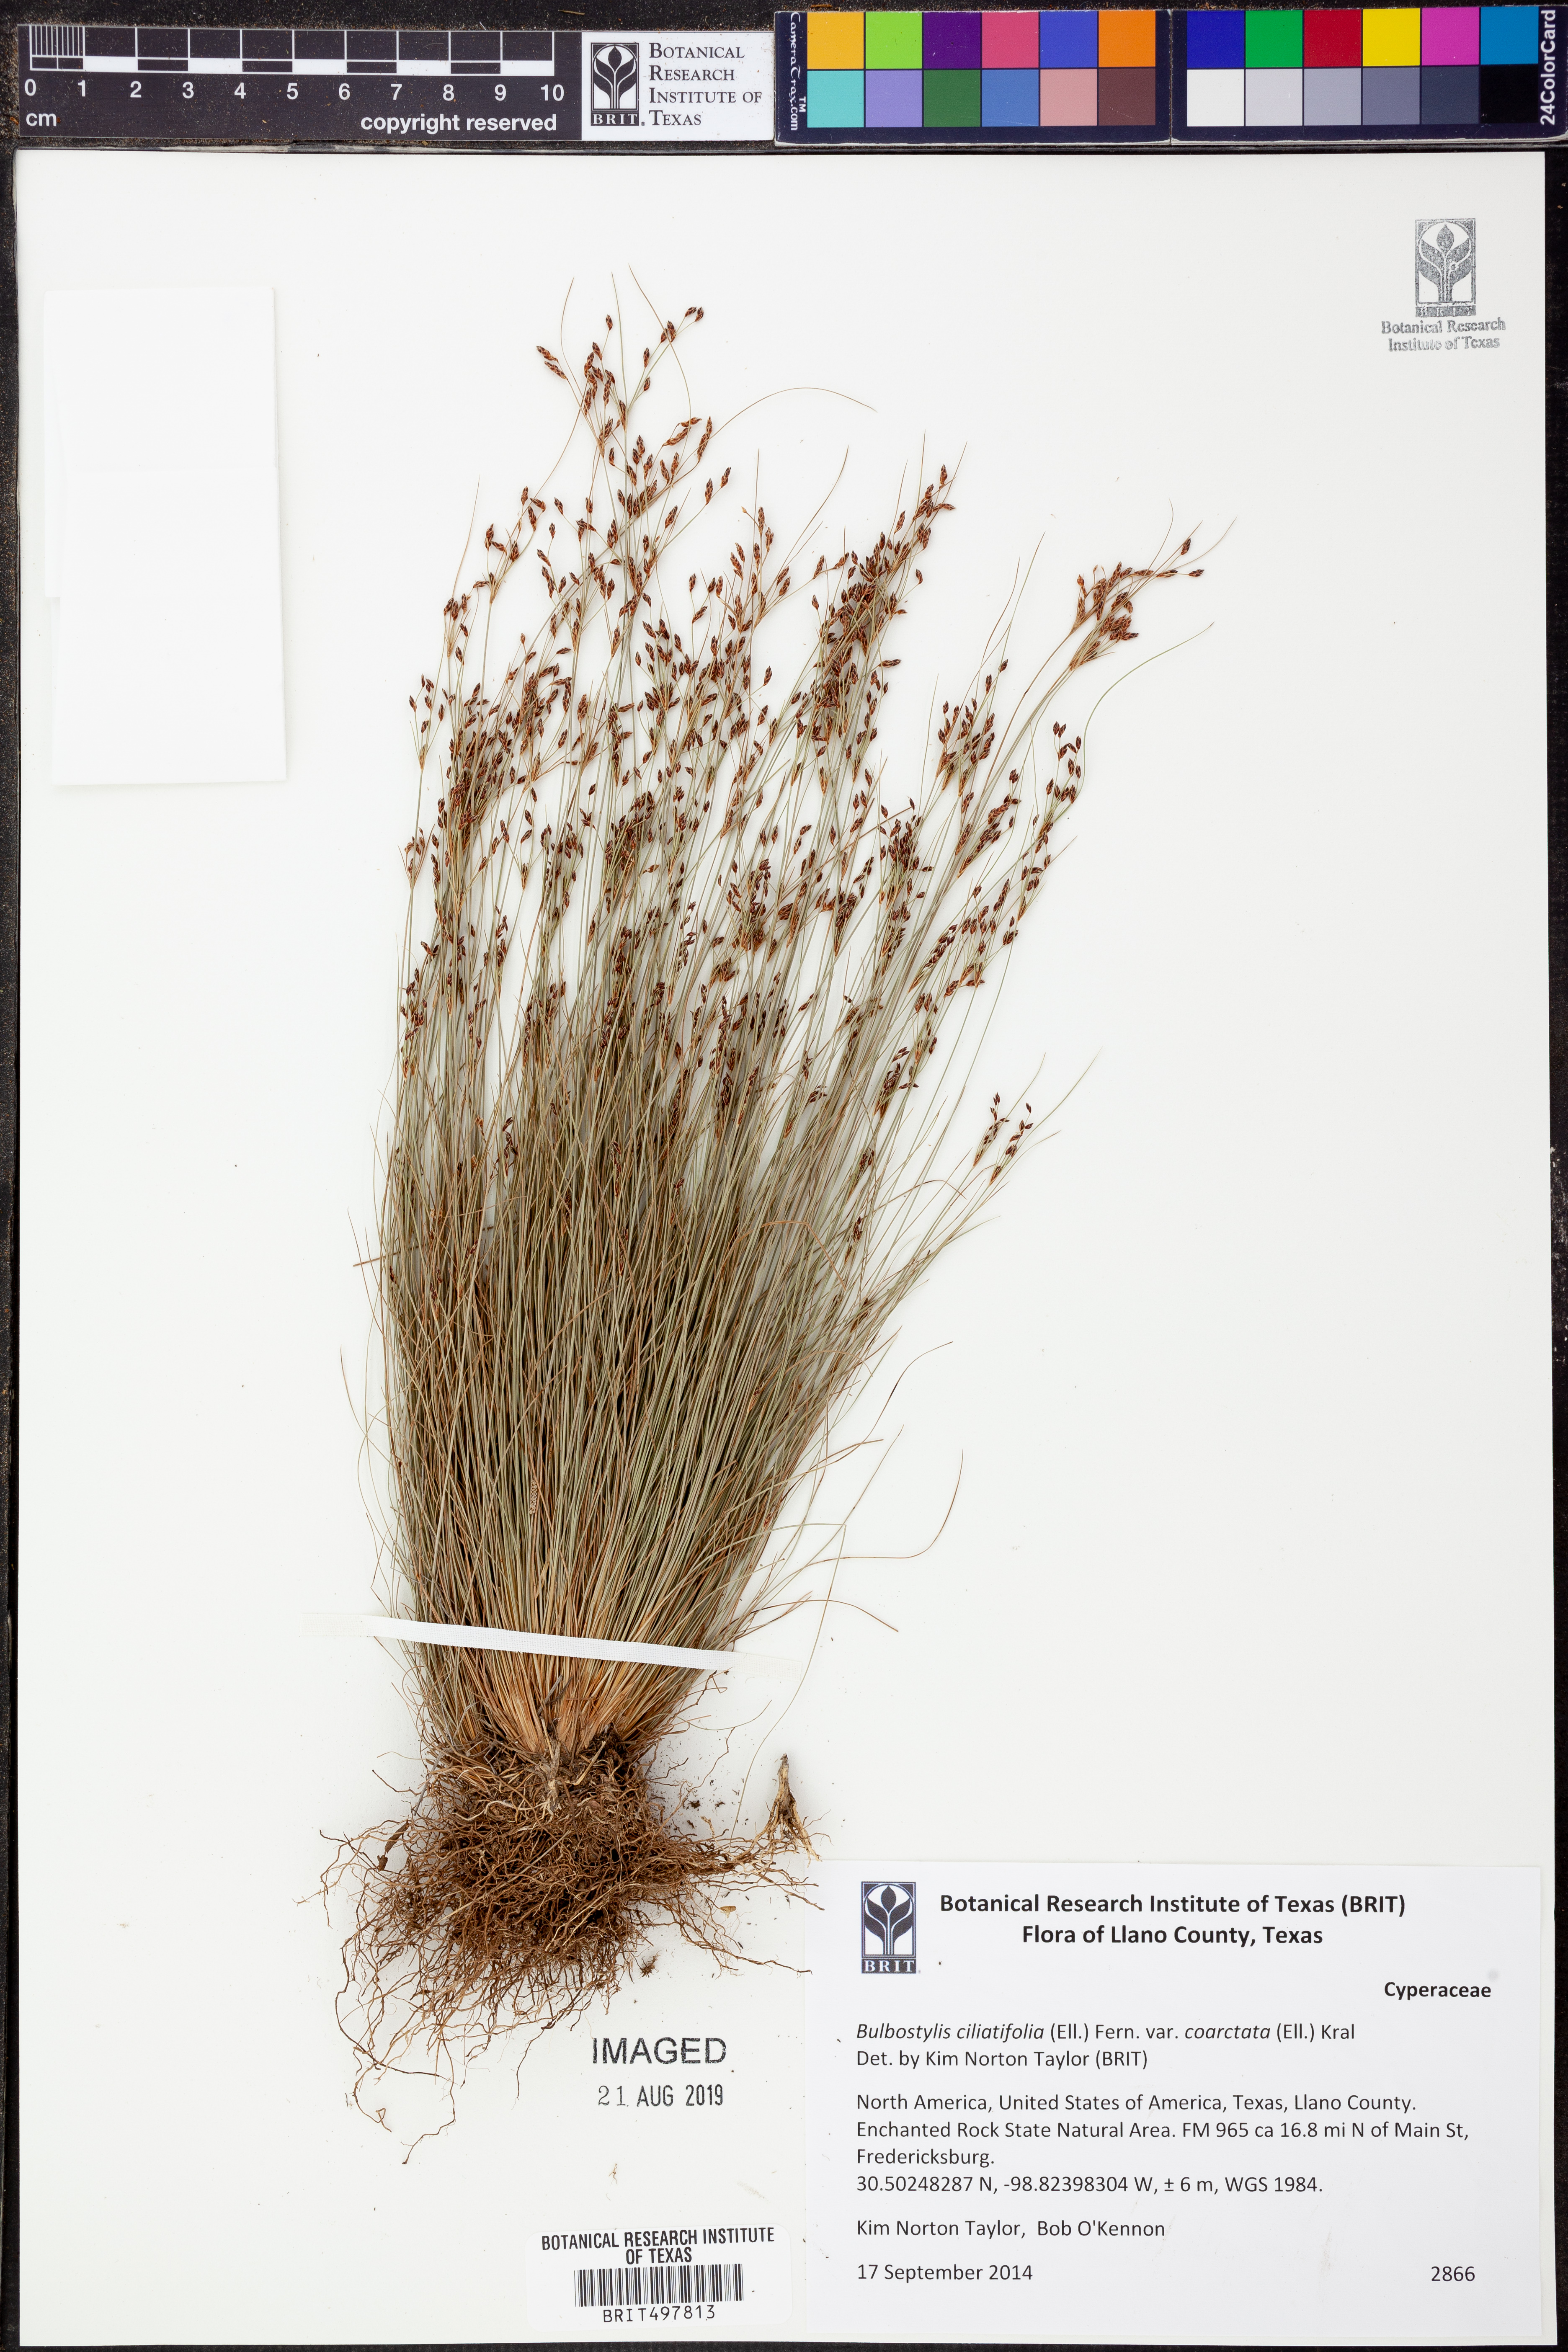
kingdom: Plantae
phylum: Tracheophyta
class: Liliopsida
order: Poales
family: Cyperaceae
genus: Bulbostylis
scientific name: Bulbostylis ciliatifolia
